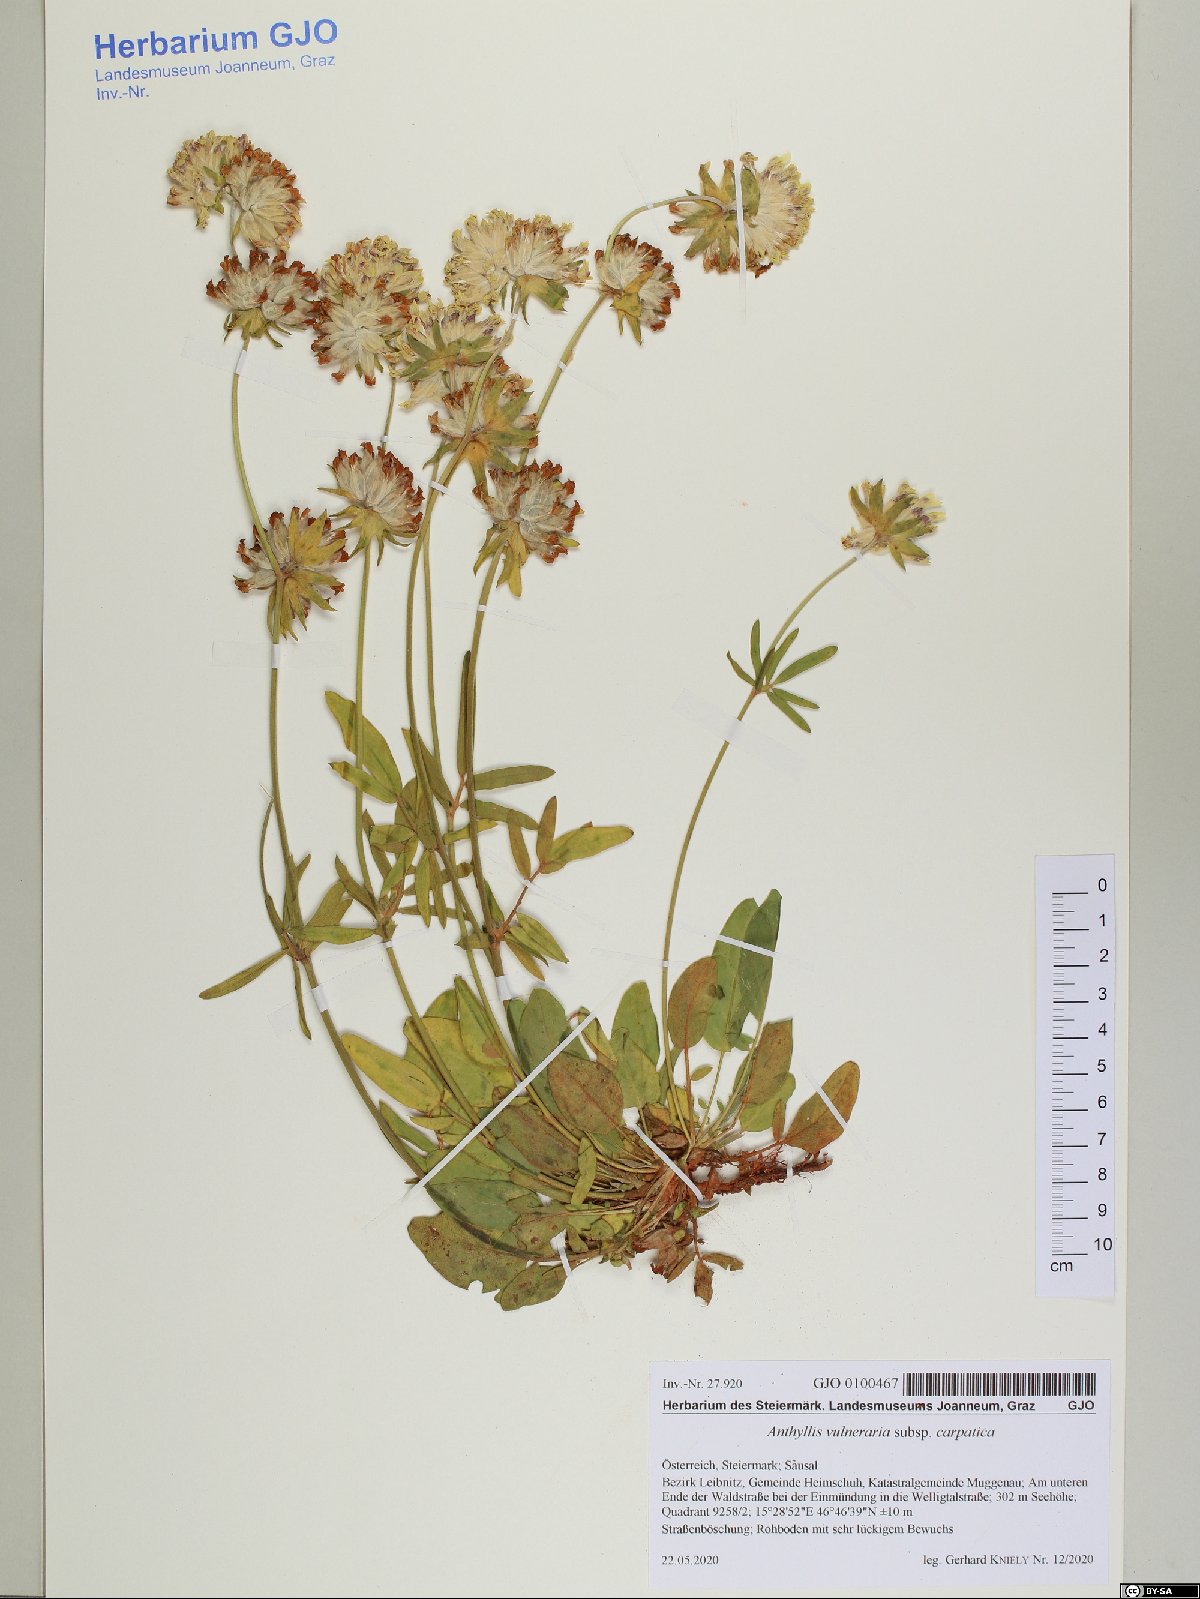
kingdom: Plantae
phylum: Tracheophyta
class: Magnoliopsida
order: Fabales
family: Fabaceae
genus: Anthyllis
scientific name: Anthyllis vulneraria
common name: Kidney vetch
